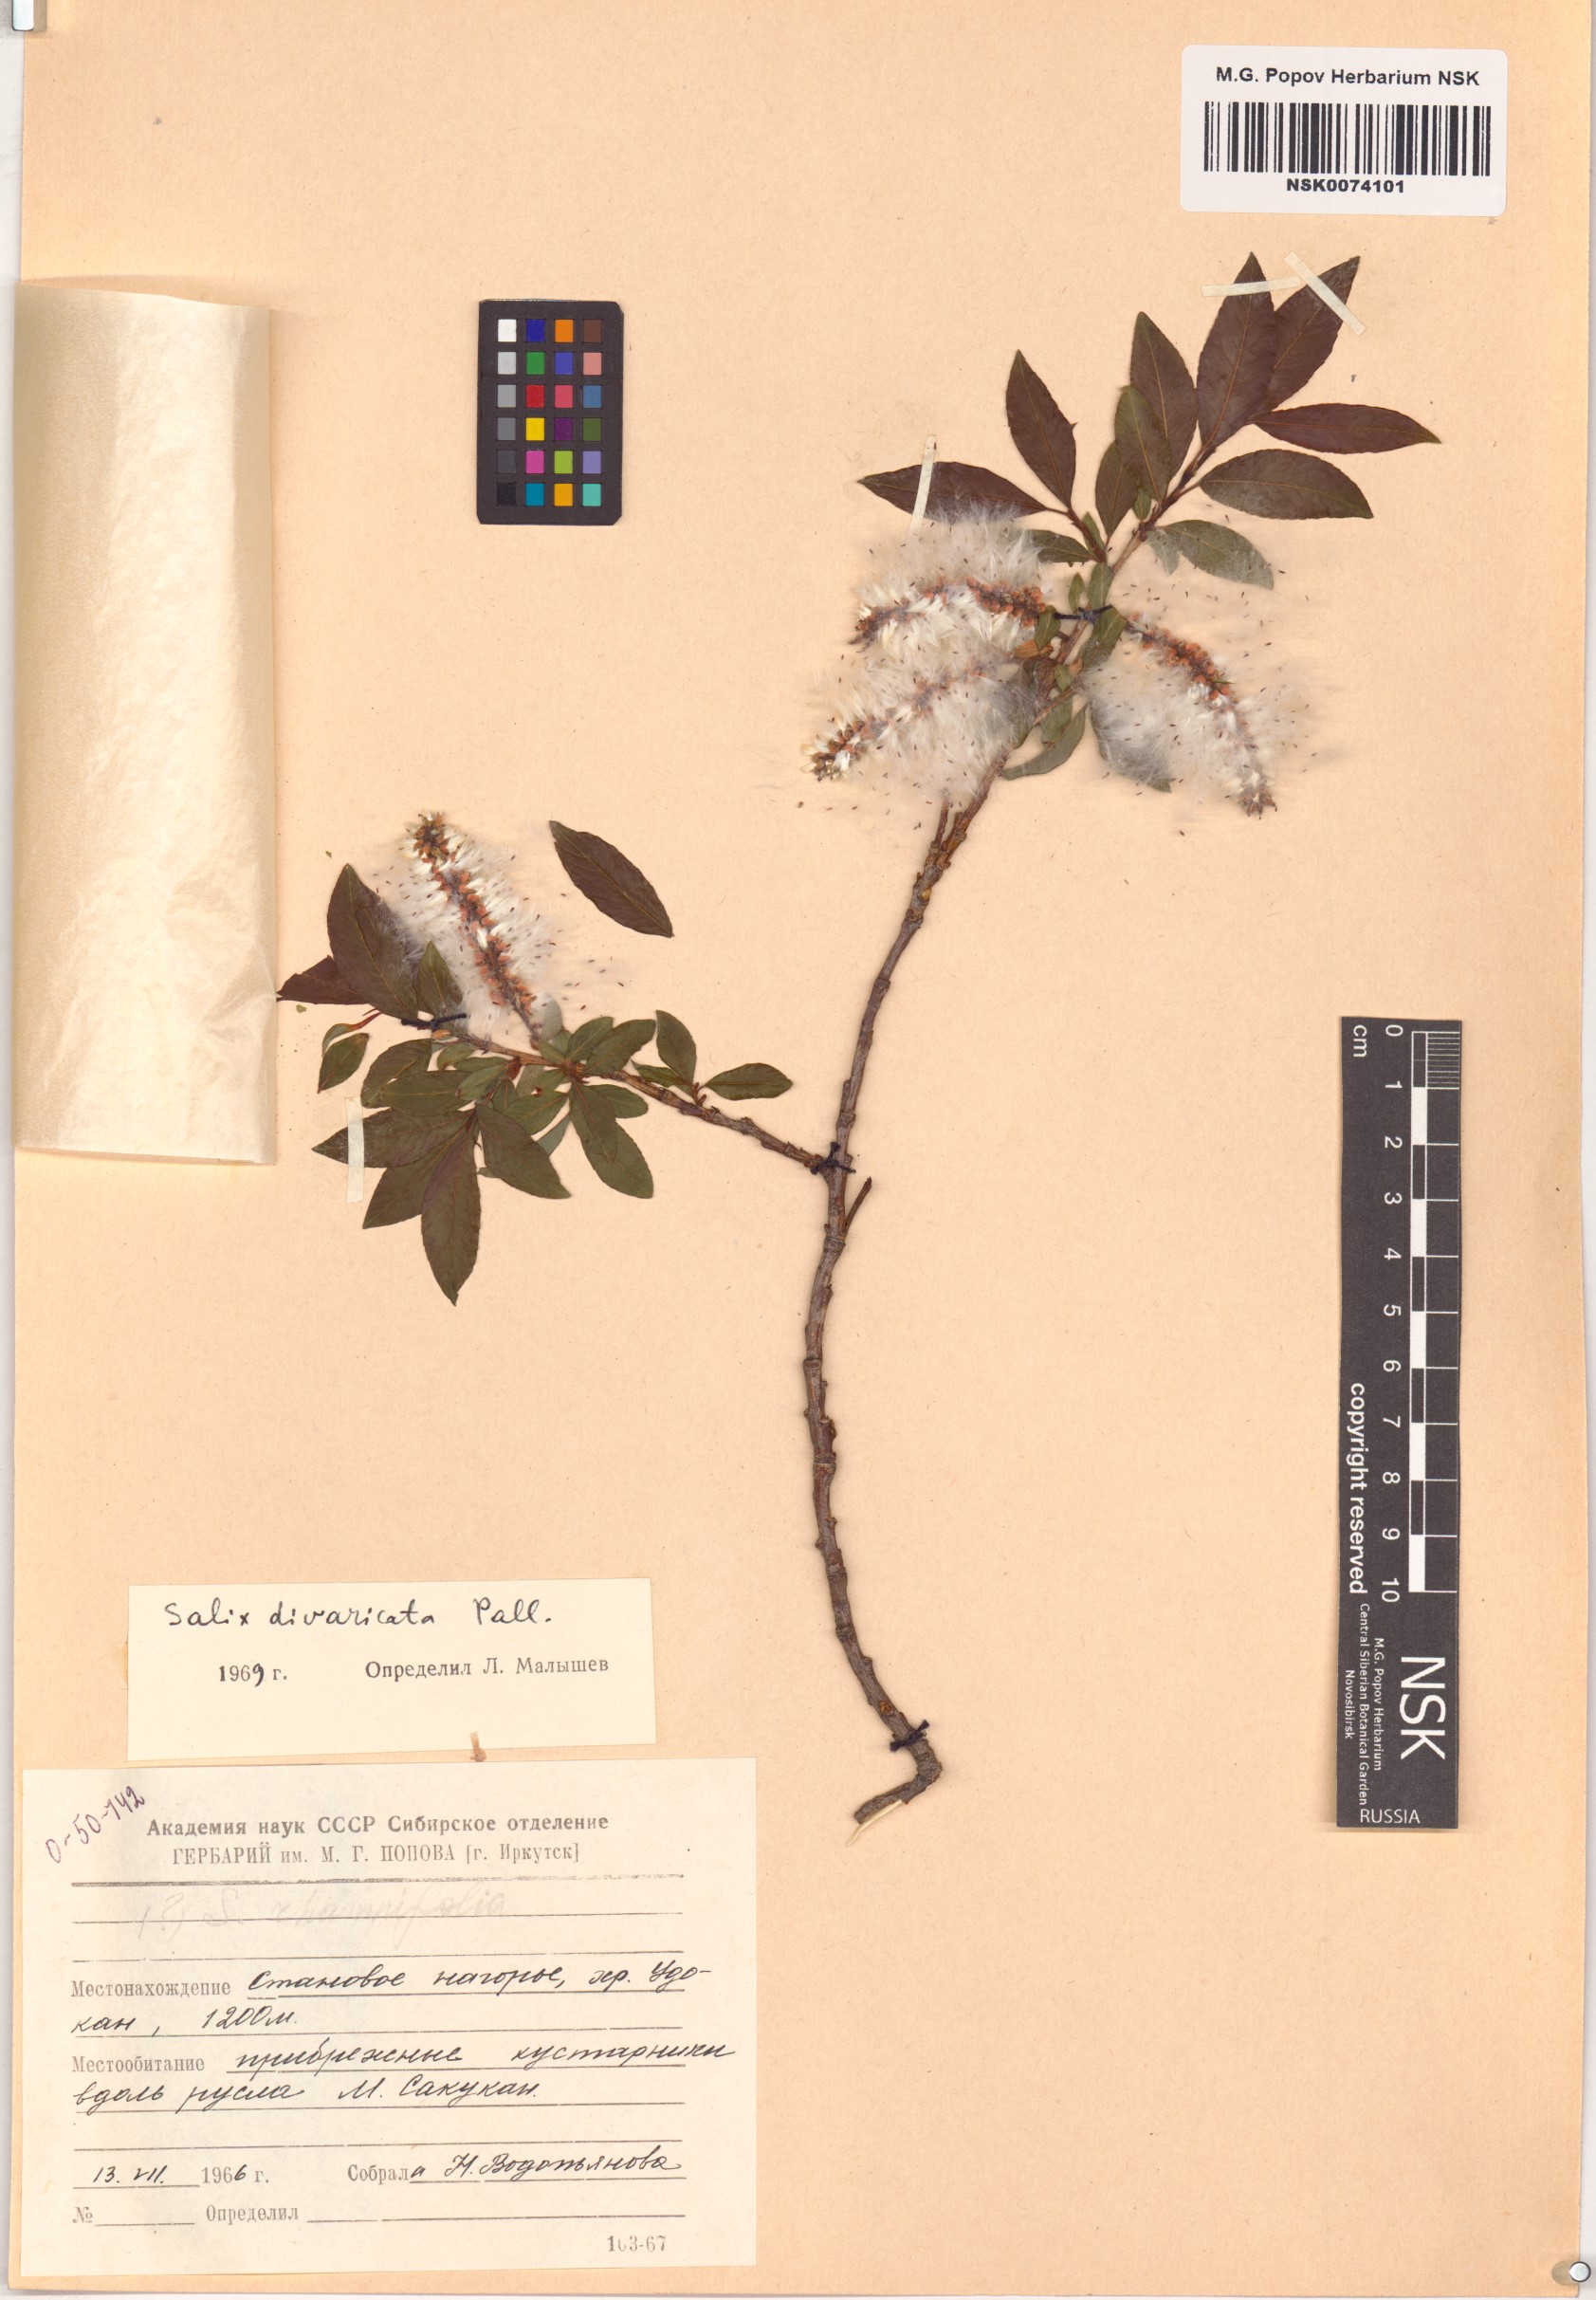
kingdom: Plantae
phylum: Tracheophyta
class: Magnoliopsida
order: Malpighiales
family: Salicaceae
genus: Salix
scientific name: Salix divaricata
